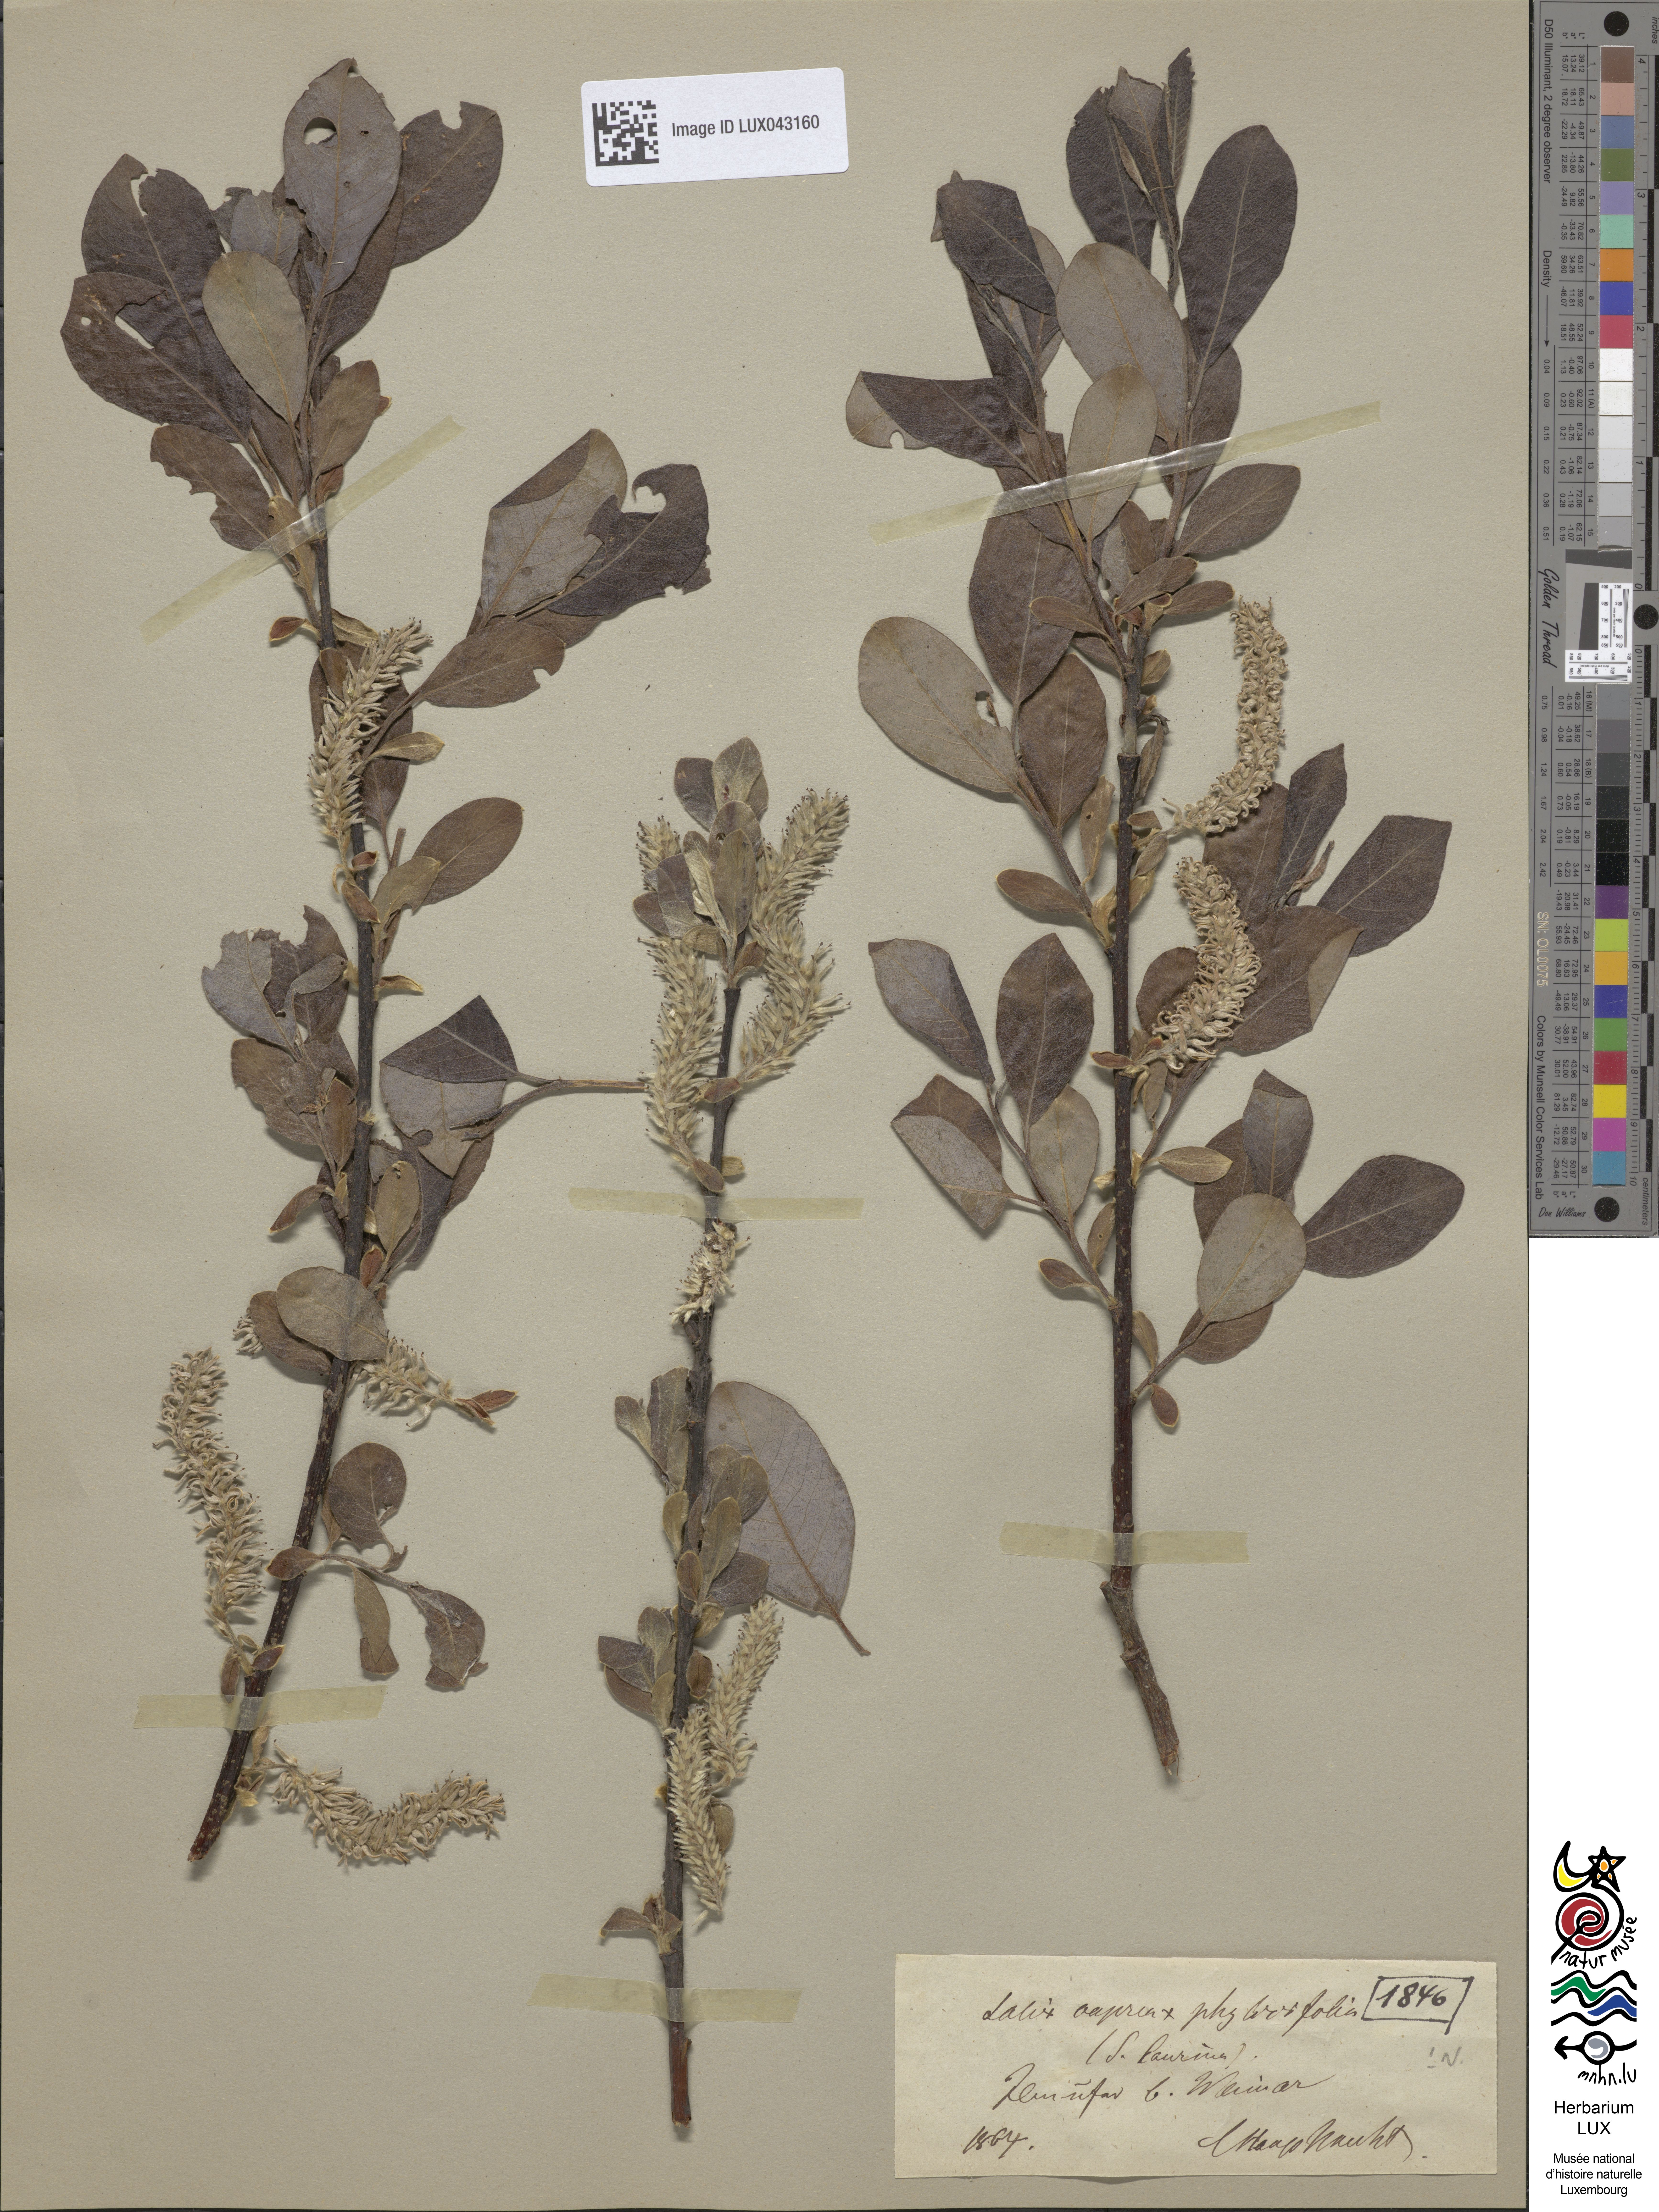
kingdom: Plantae
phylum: Tracheophyta
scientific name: Tracheophyta
